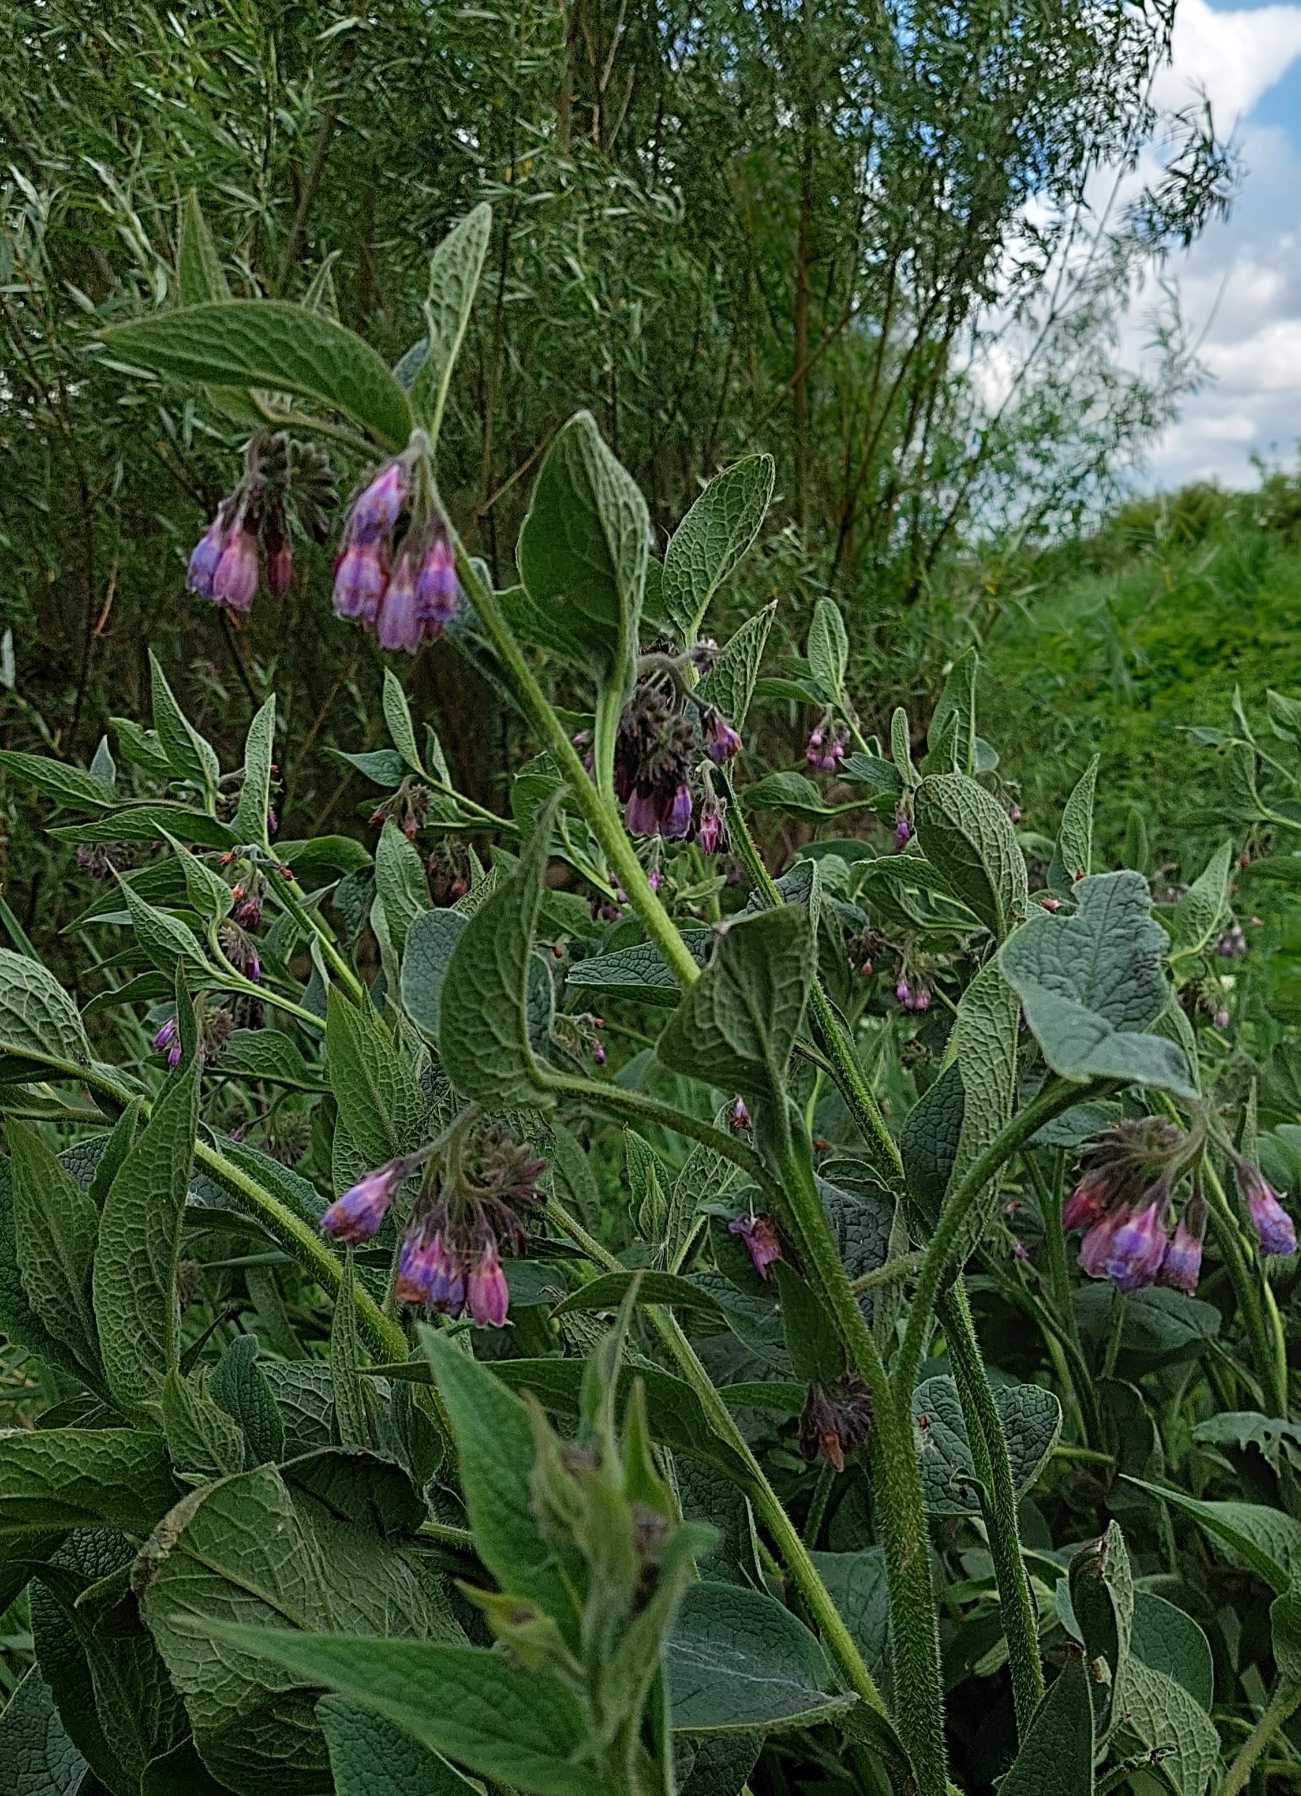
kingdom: Plantae
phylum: Tracheophyta
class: Magnoliopsida
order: Boraginales
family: Boraginaceae
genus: Symphytum
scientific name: Symphytum uplandicum
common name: Foder-kulsukker
